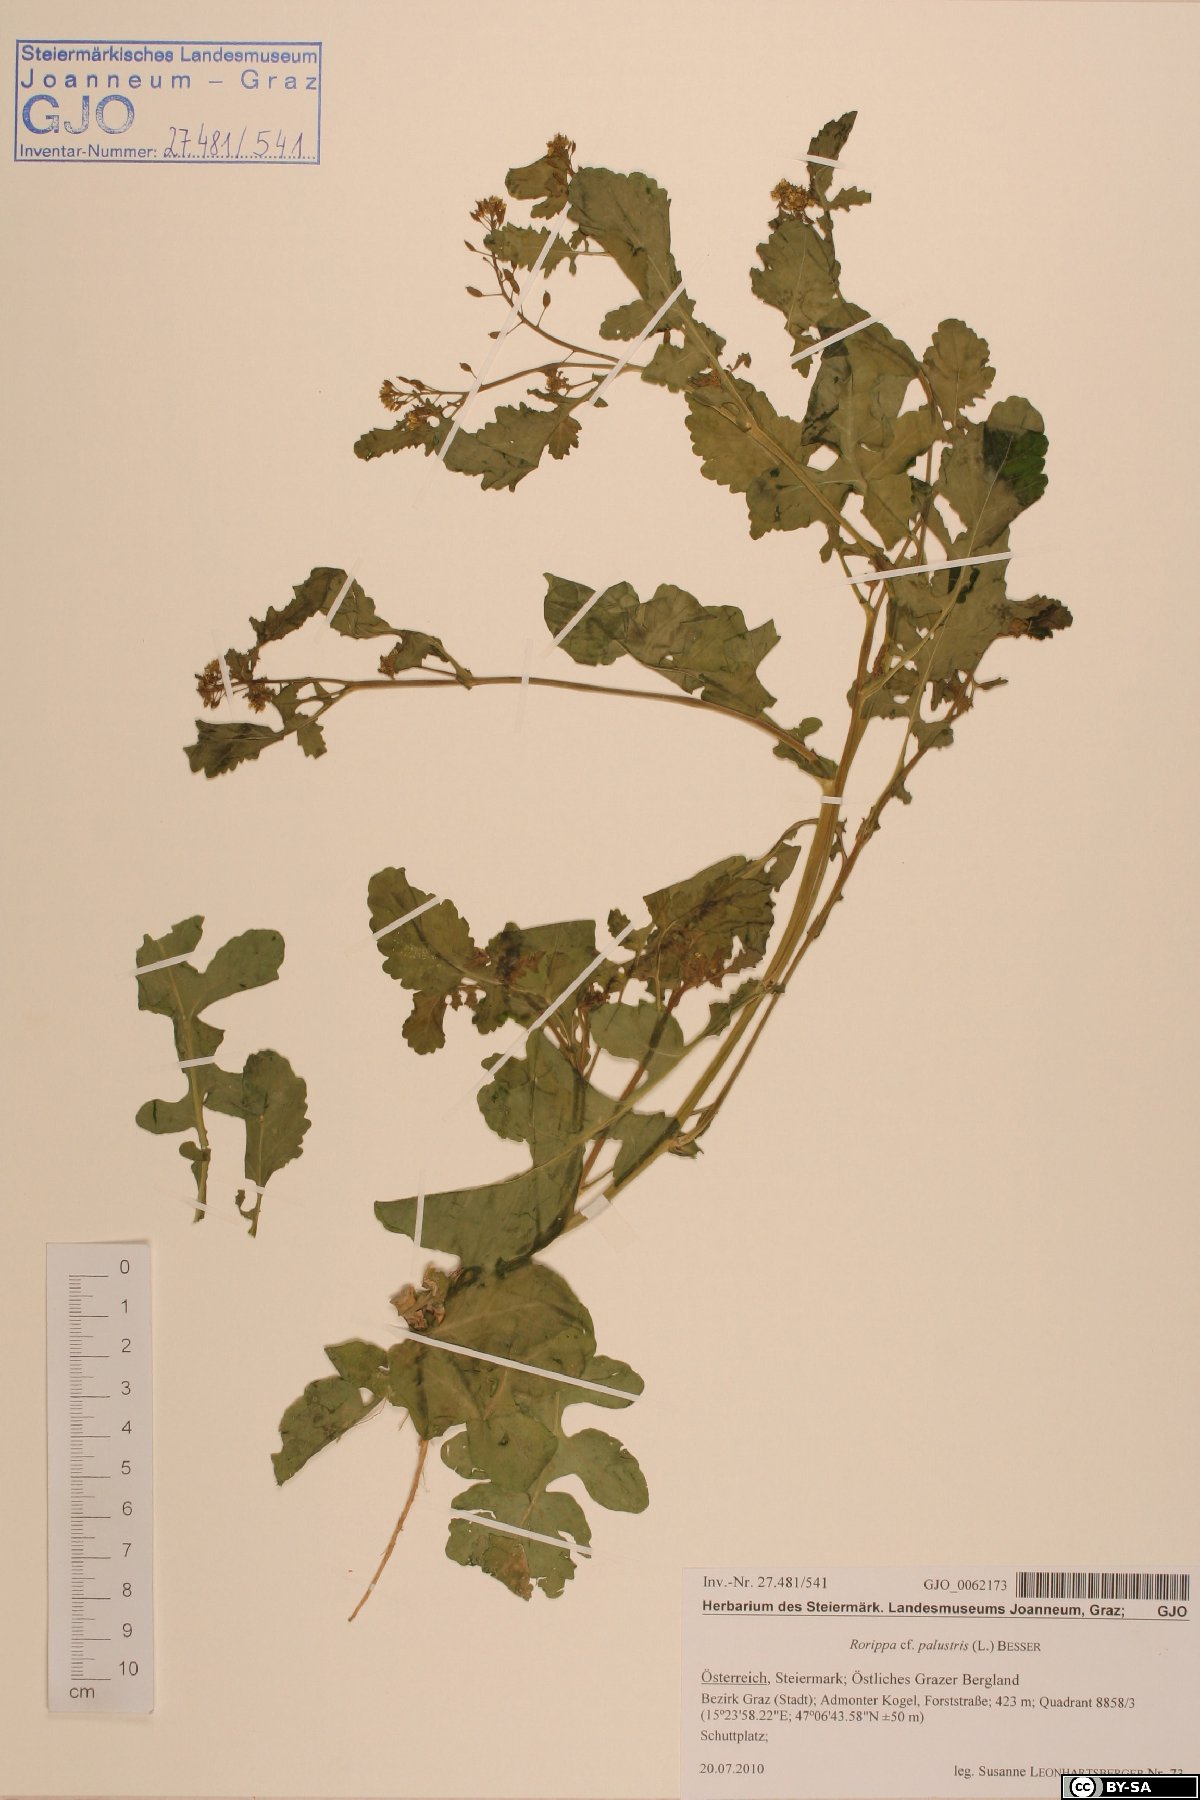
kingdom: Plantae
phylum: Tracheophyta
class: Magnoliopsida
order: Brassicales
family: Brassicaceae
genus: Rorippa
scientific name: Rorippa palustris
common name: Marsh yellow-cress
